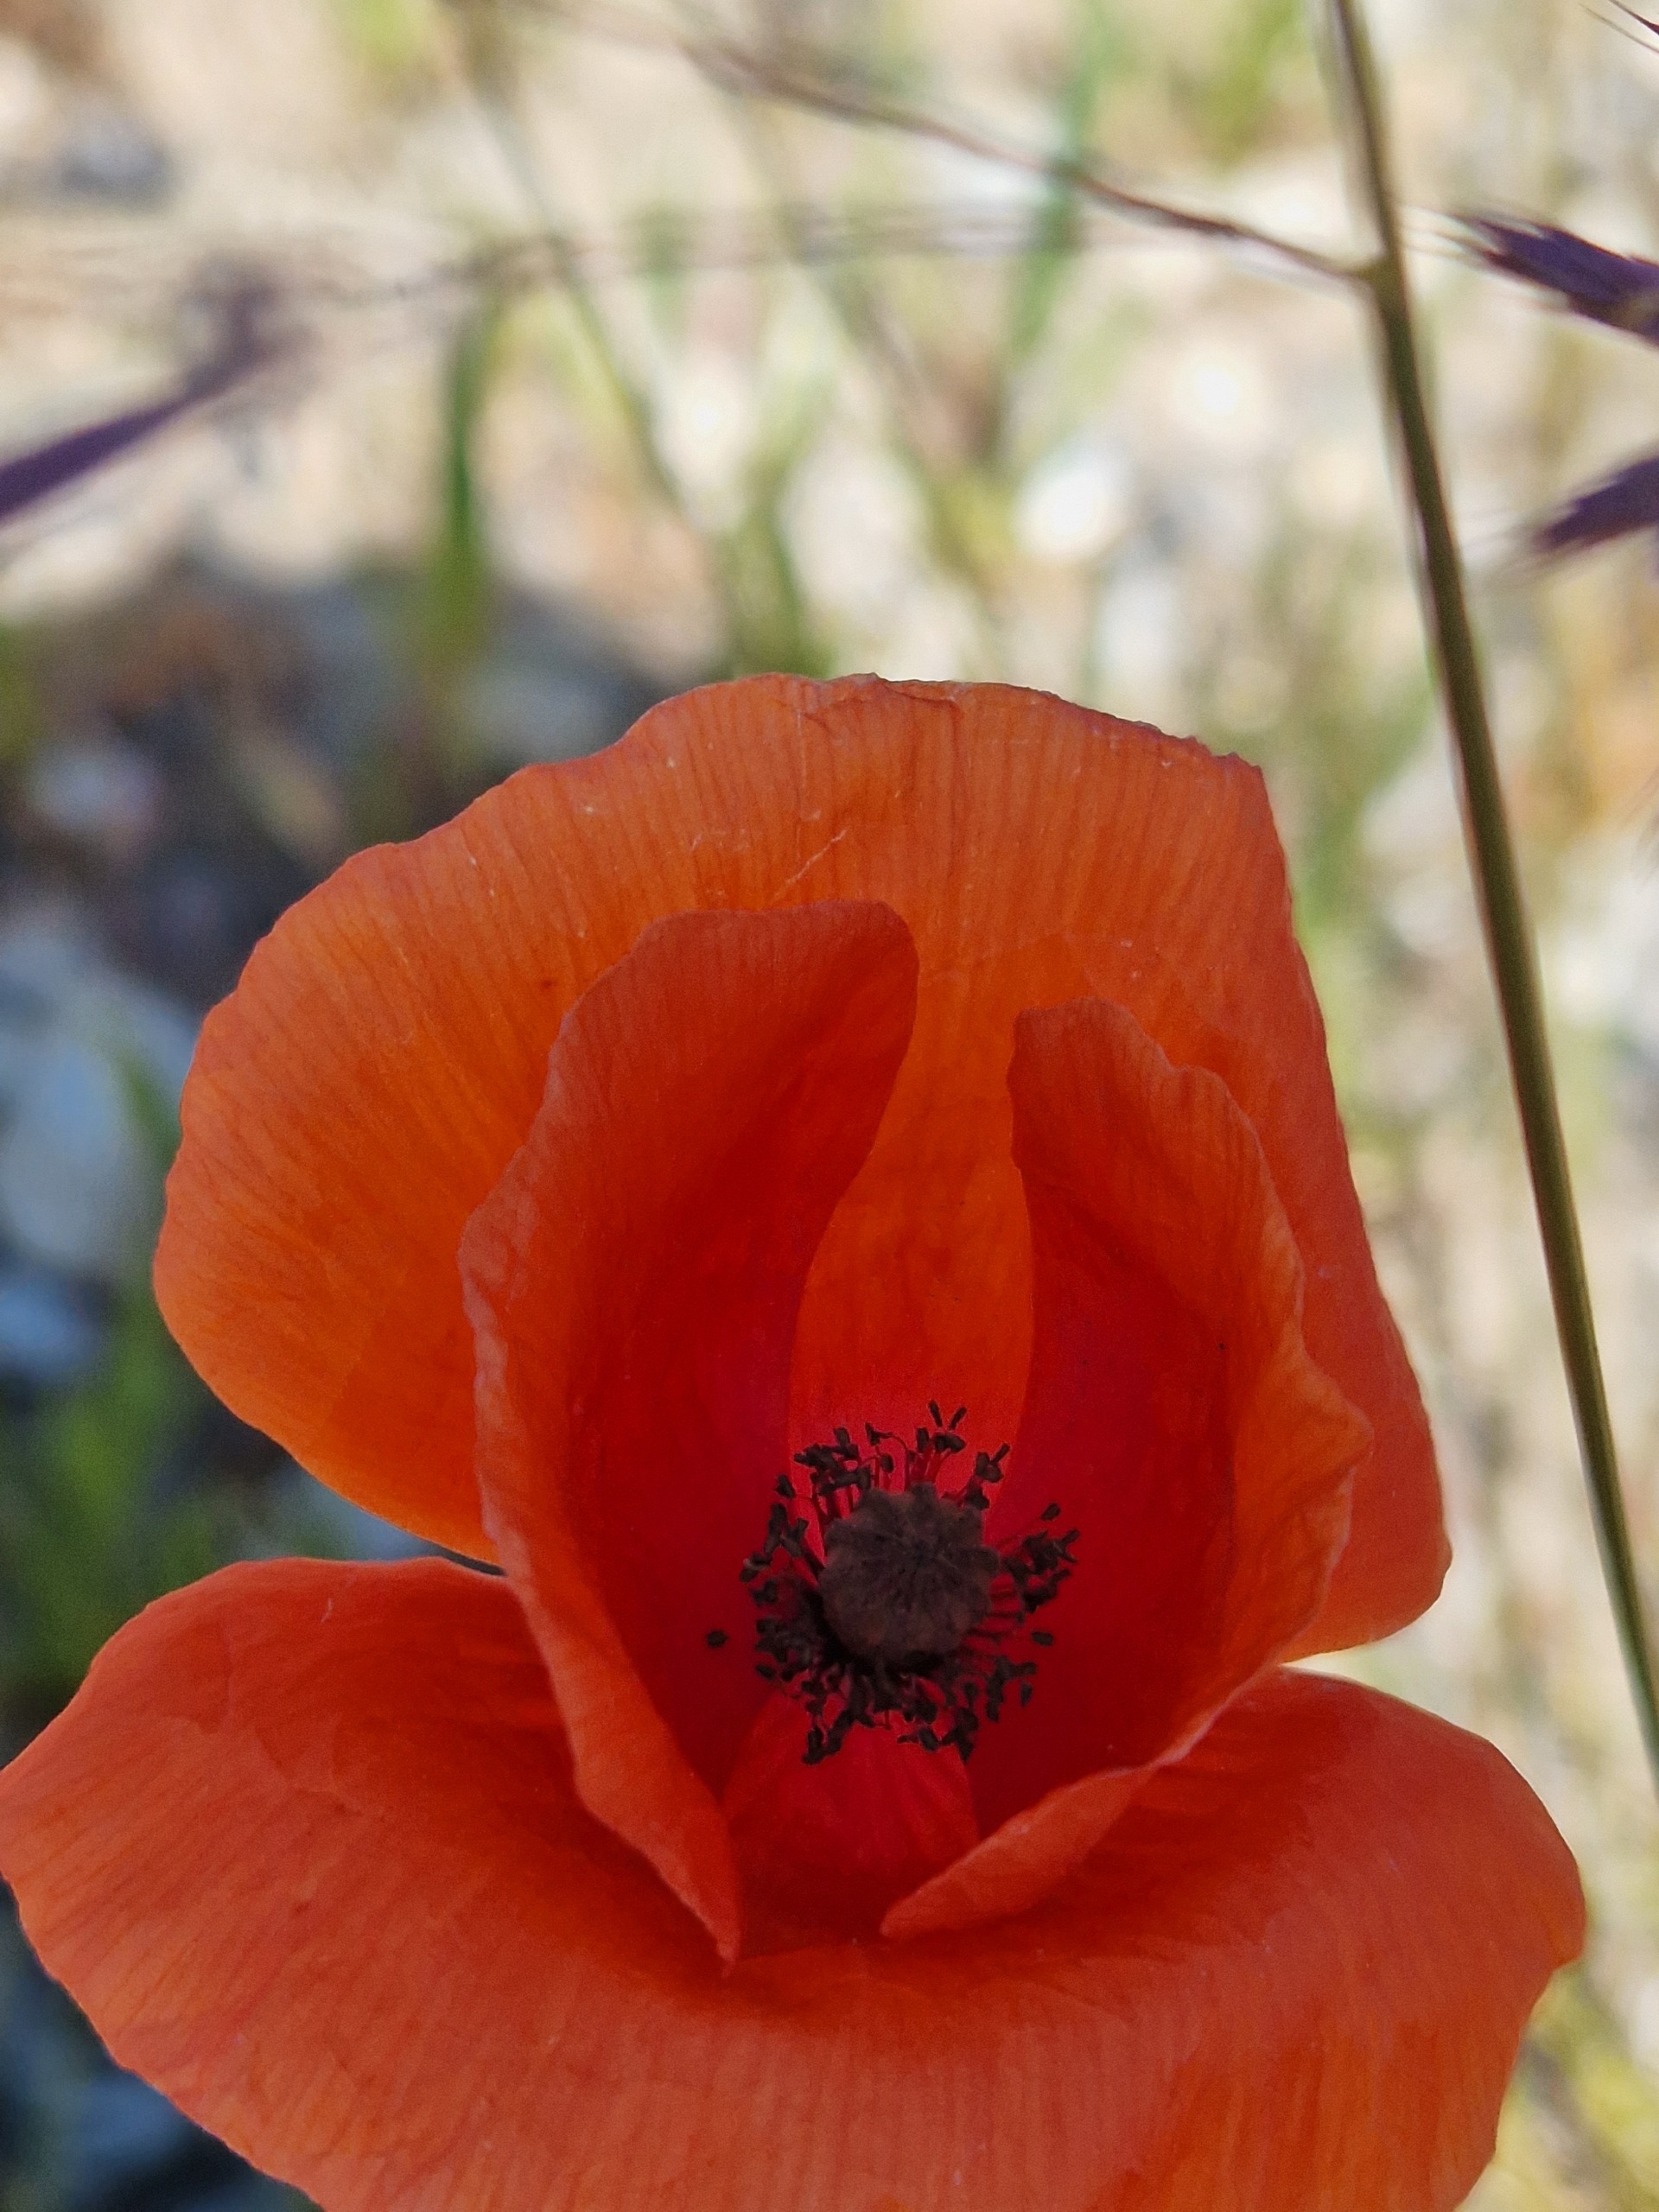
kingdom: Plantae
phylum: Tracheophyta
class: Magnoliopsida
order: Ranunculales
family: Papaveraceae
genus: Papaver
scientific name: Papaver rhoeas
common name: Korn-valmue
